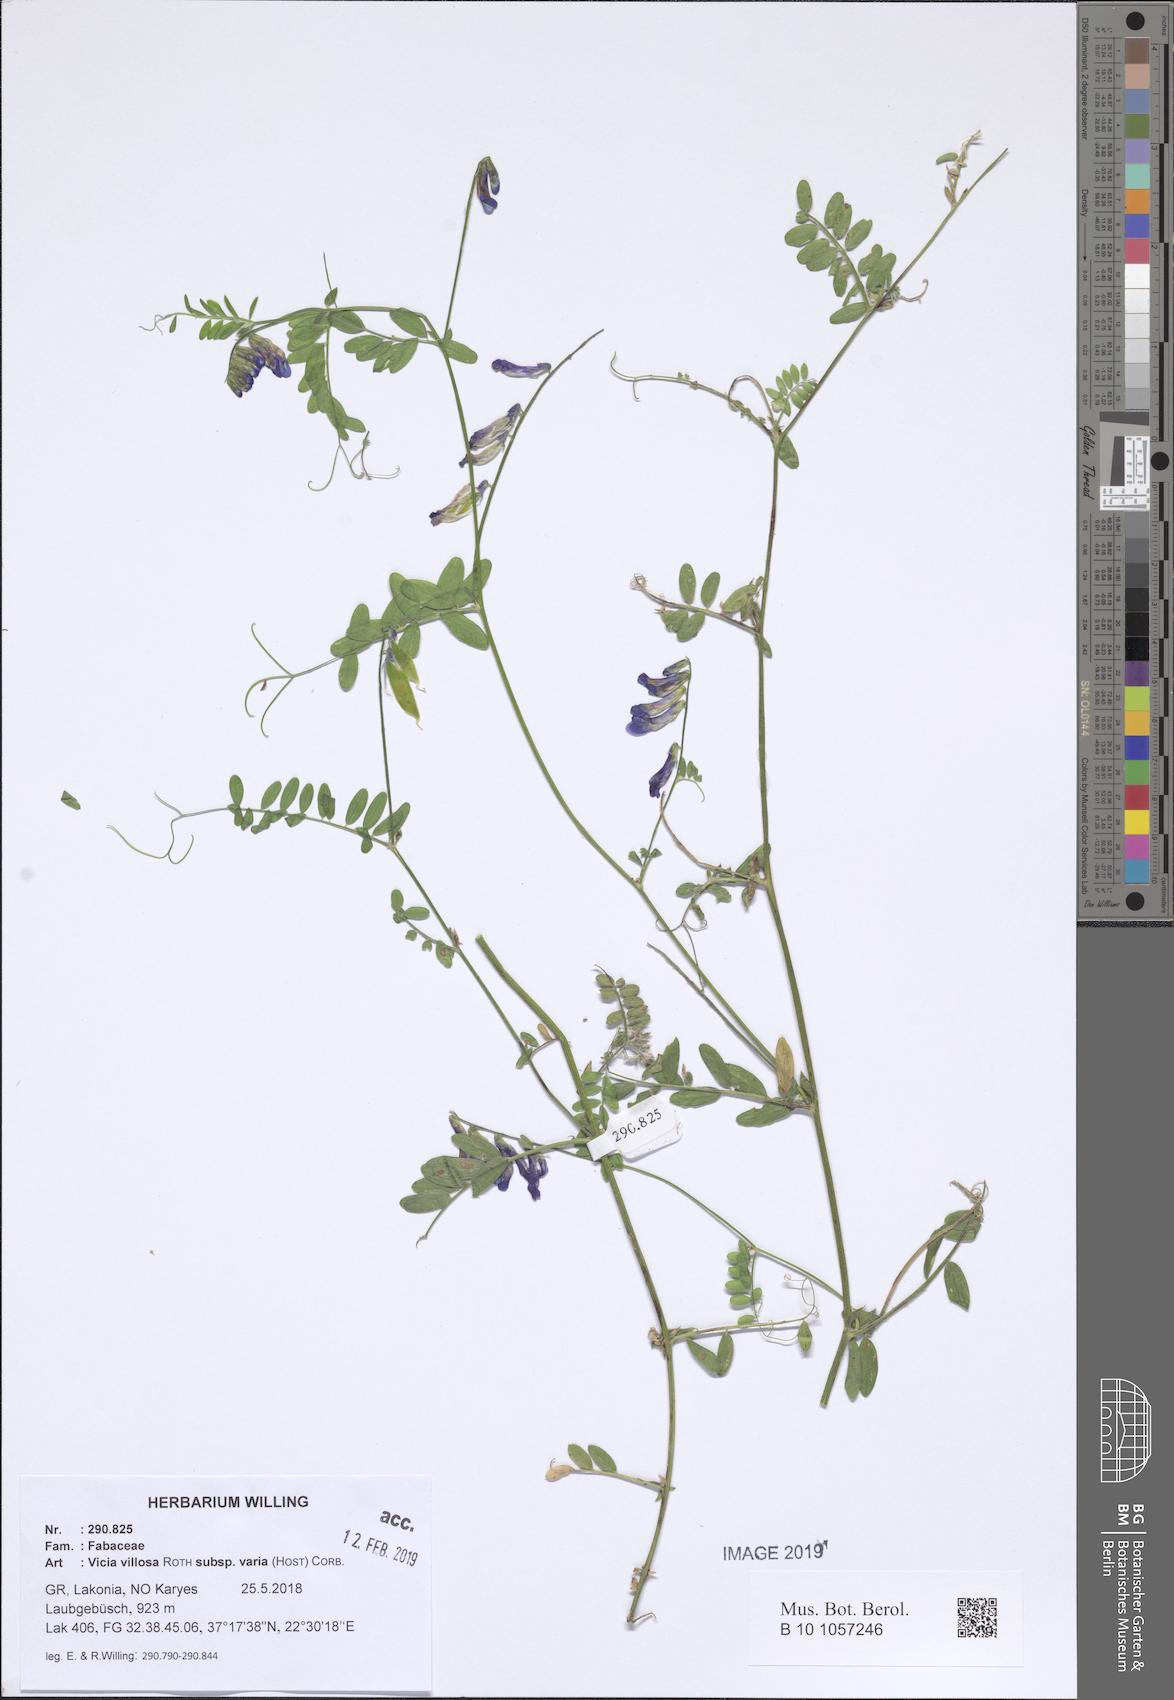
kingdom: Plantae
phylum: Tracheophyta
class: Magnoliopsida
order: Fabales
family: Fabaceae
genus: Vicia
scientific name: Vicia villosa
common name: Fodder vetch
